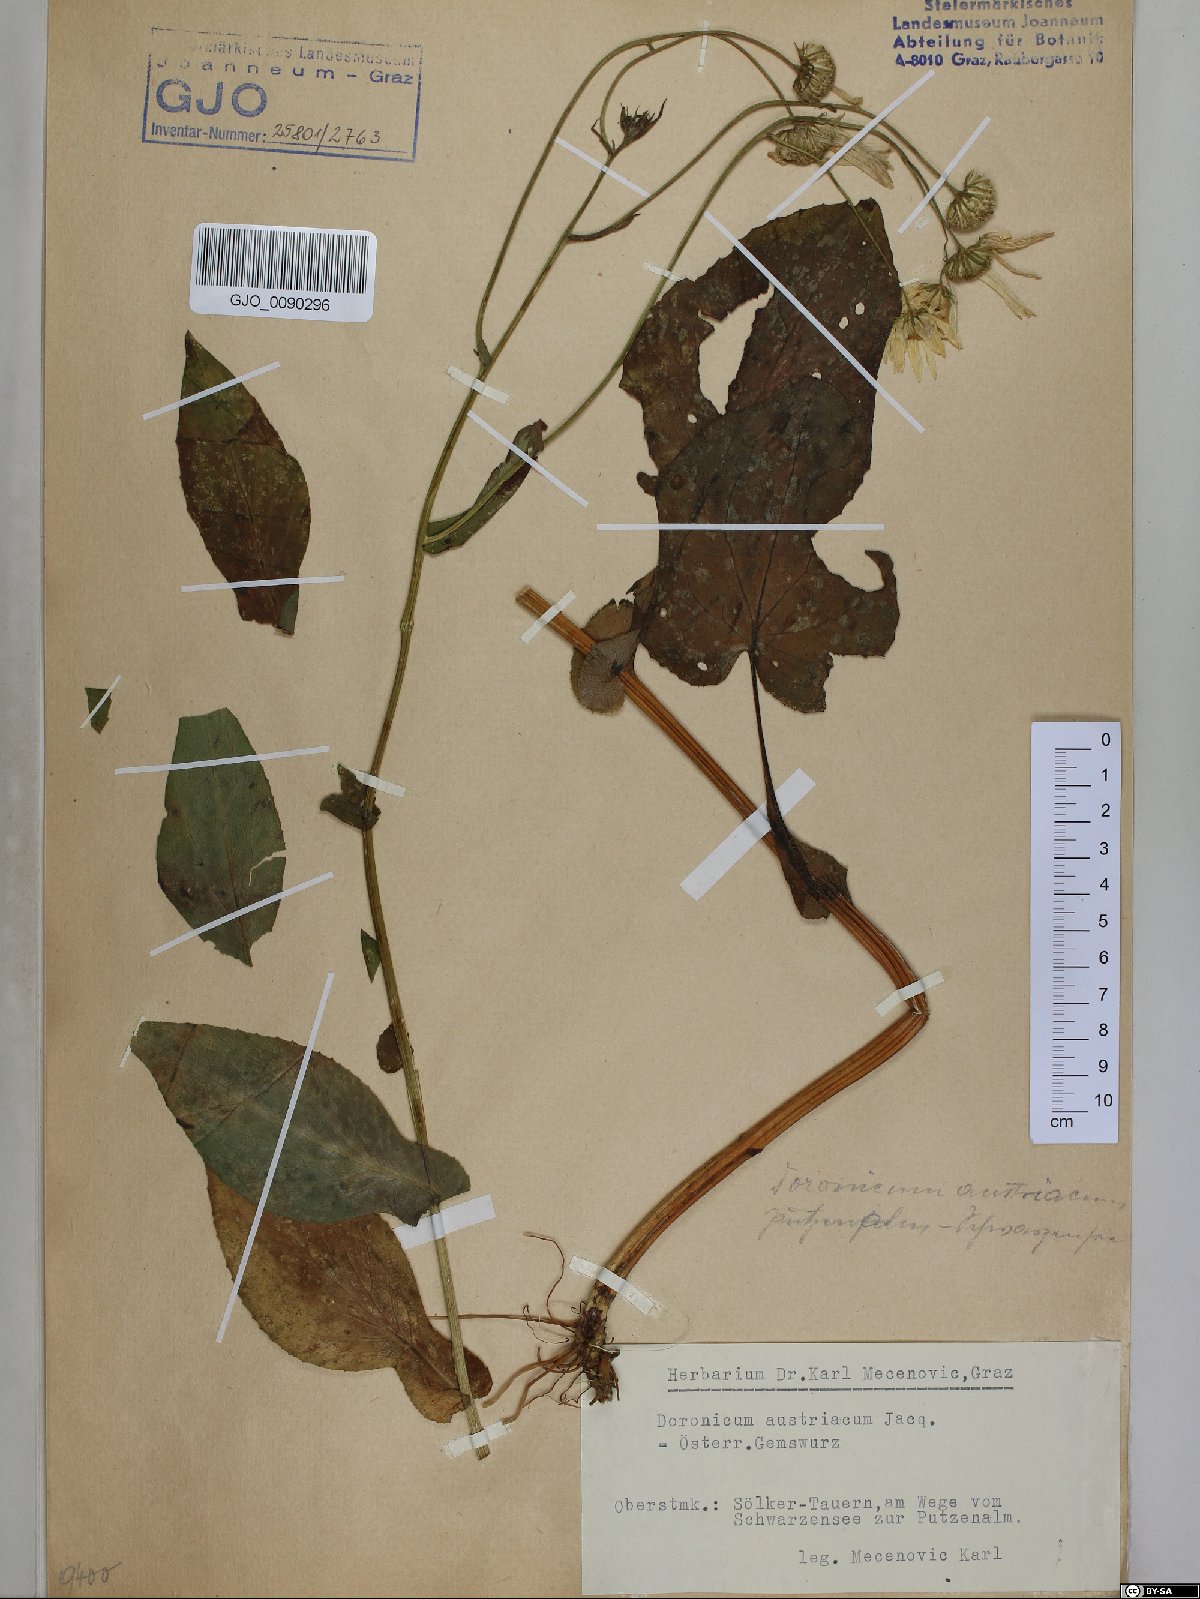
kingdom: Plantae
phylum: Tracheophyta
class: Magnoliopsida
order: Asterales
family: Asteraceae
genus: Doronicum
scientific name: Doronicum austriacum
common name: Austrian leopard's-bane
